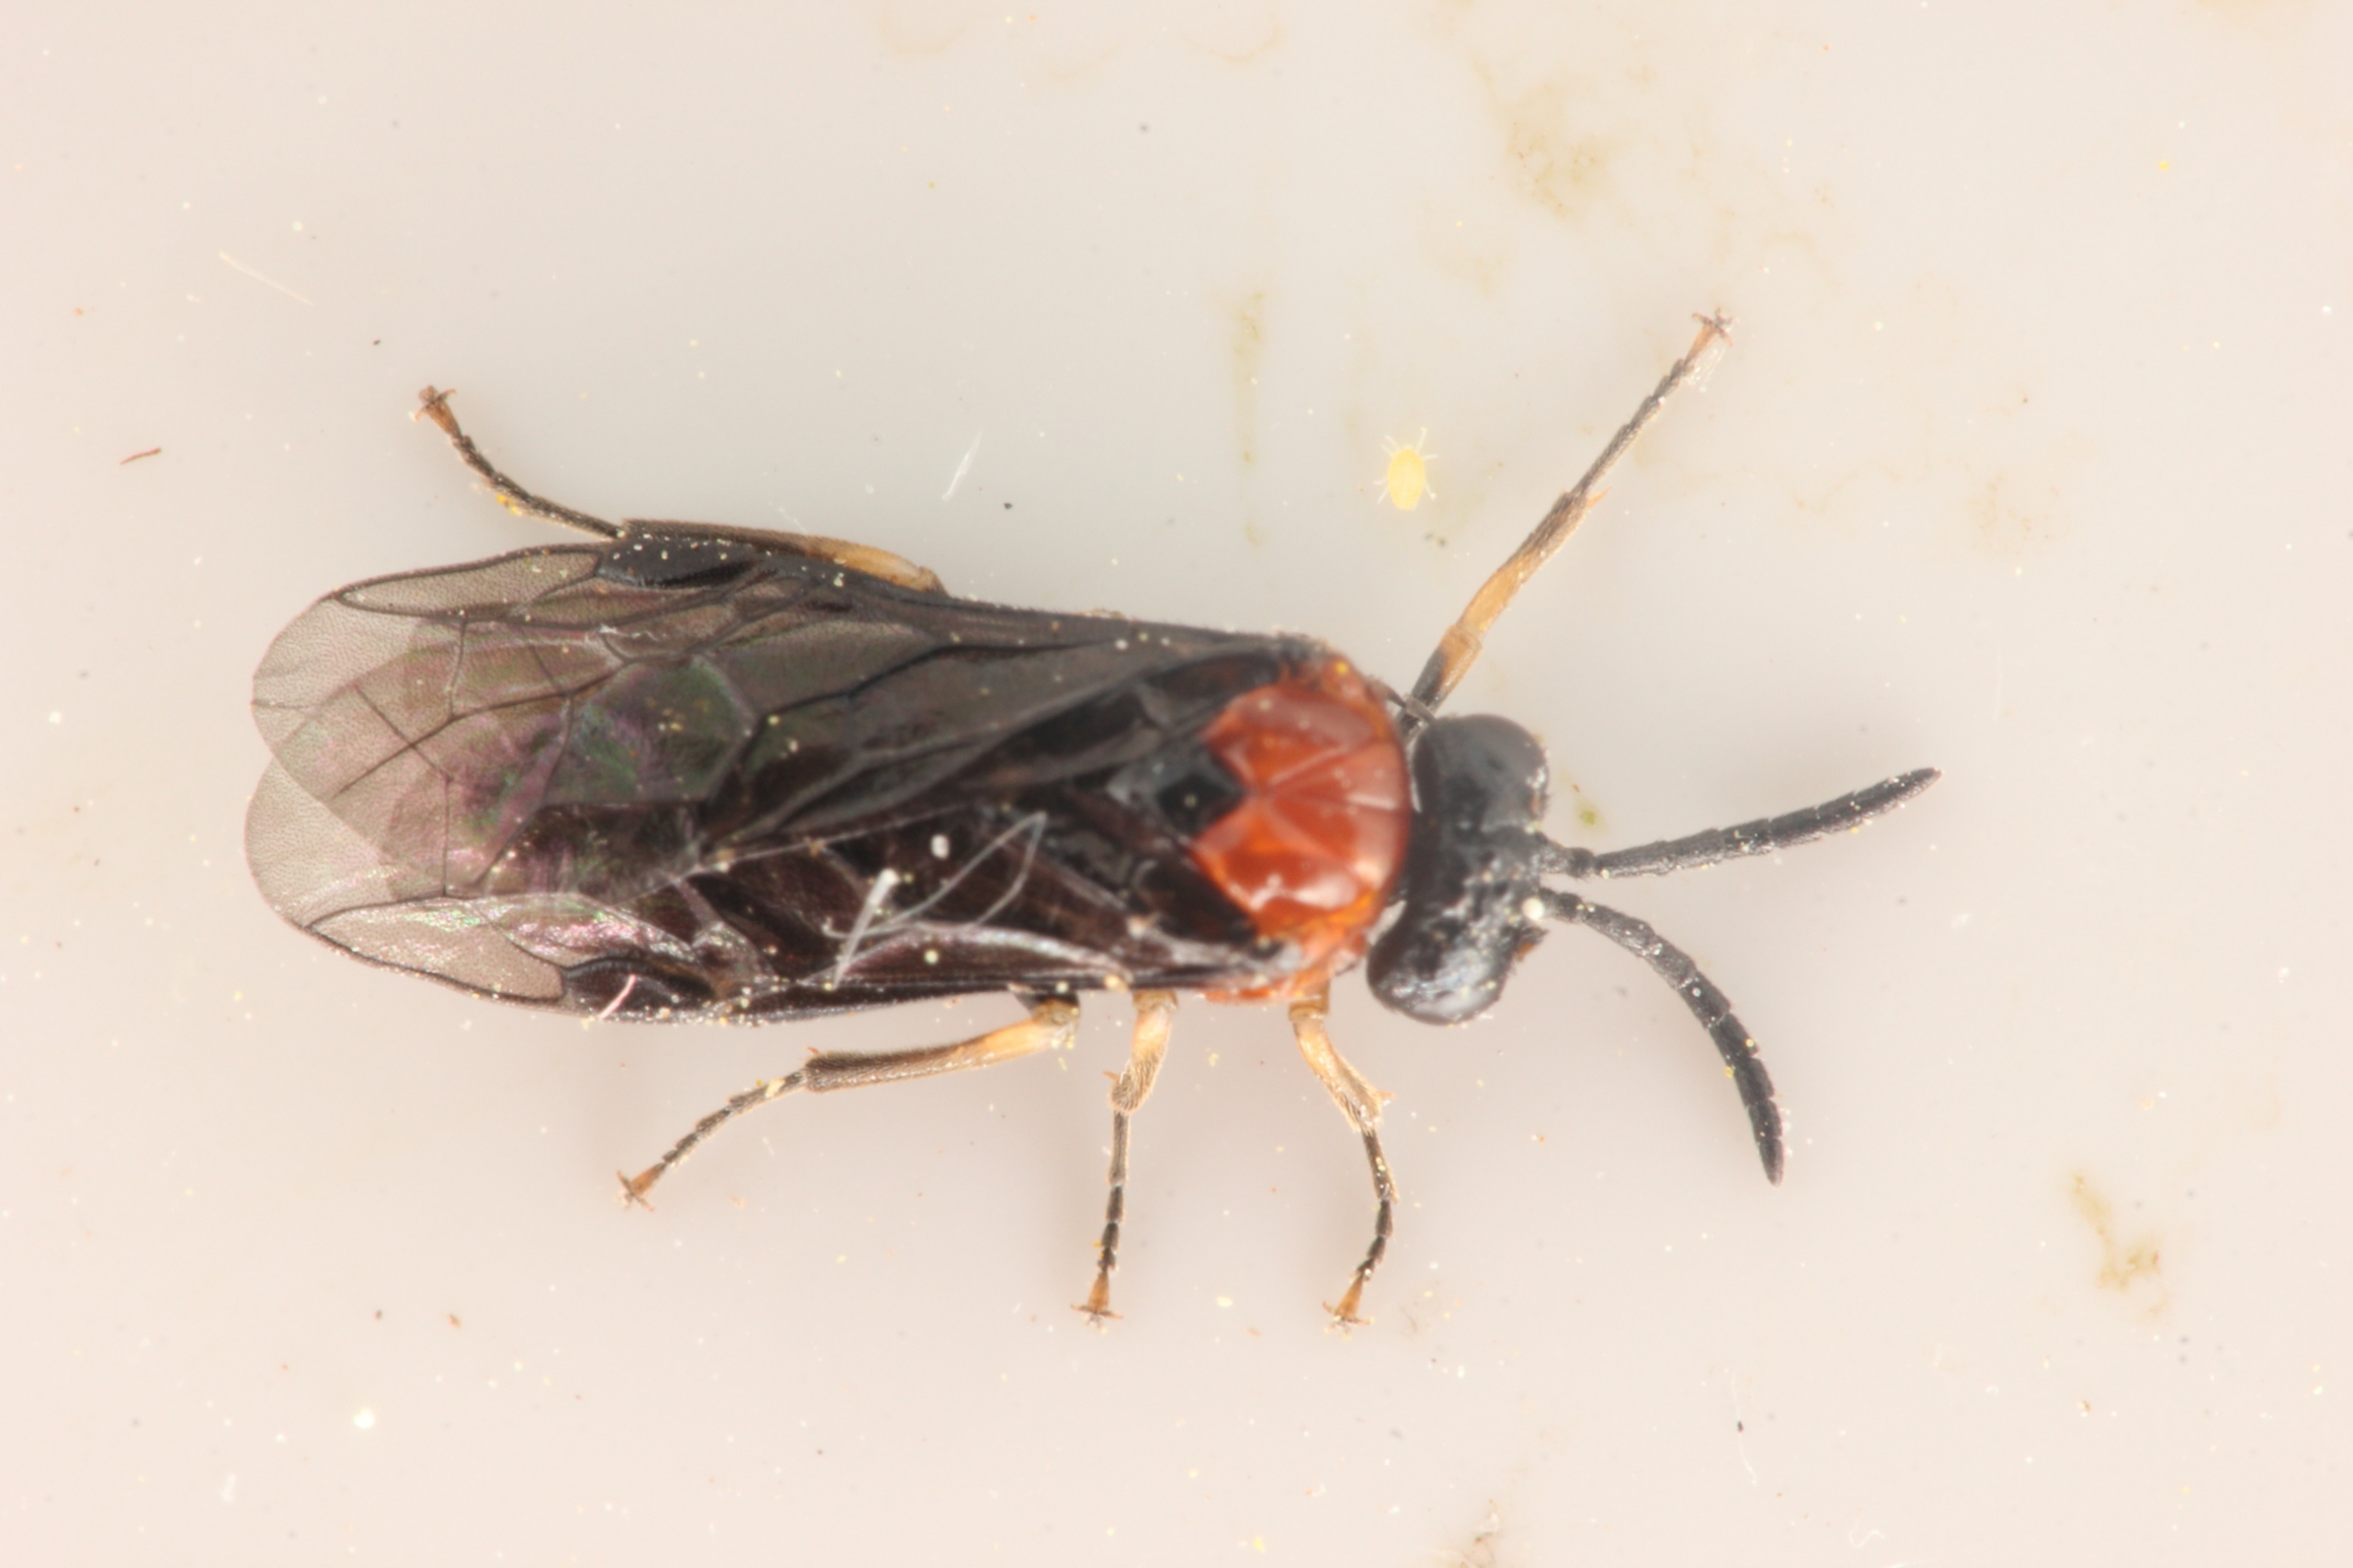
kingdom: Animalia
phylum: Arthropoda
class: Insecta
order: Hymenoptera
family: Tenthredinidae
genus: Eutomostethus
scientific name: Eutomostethus ephippium
